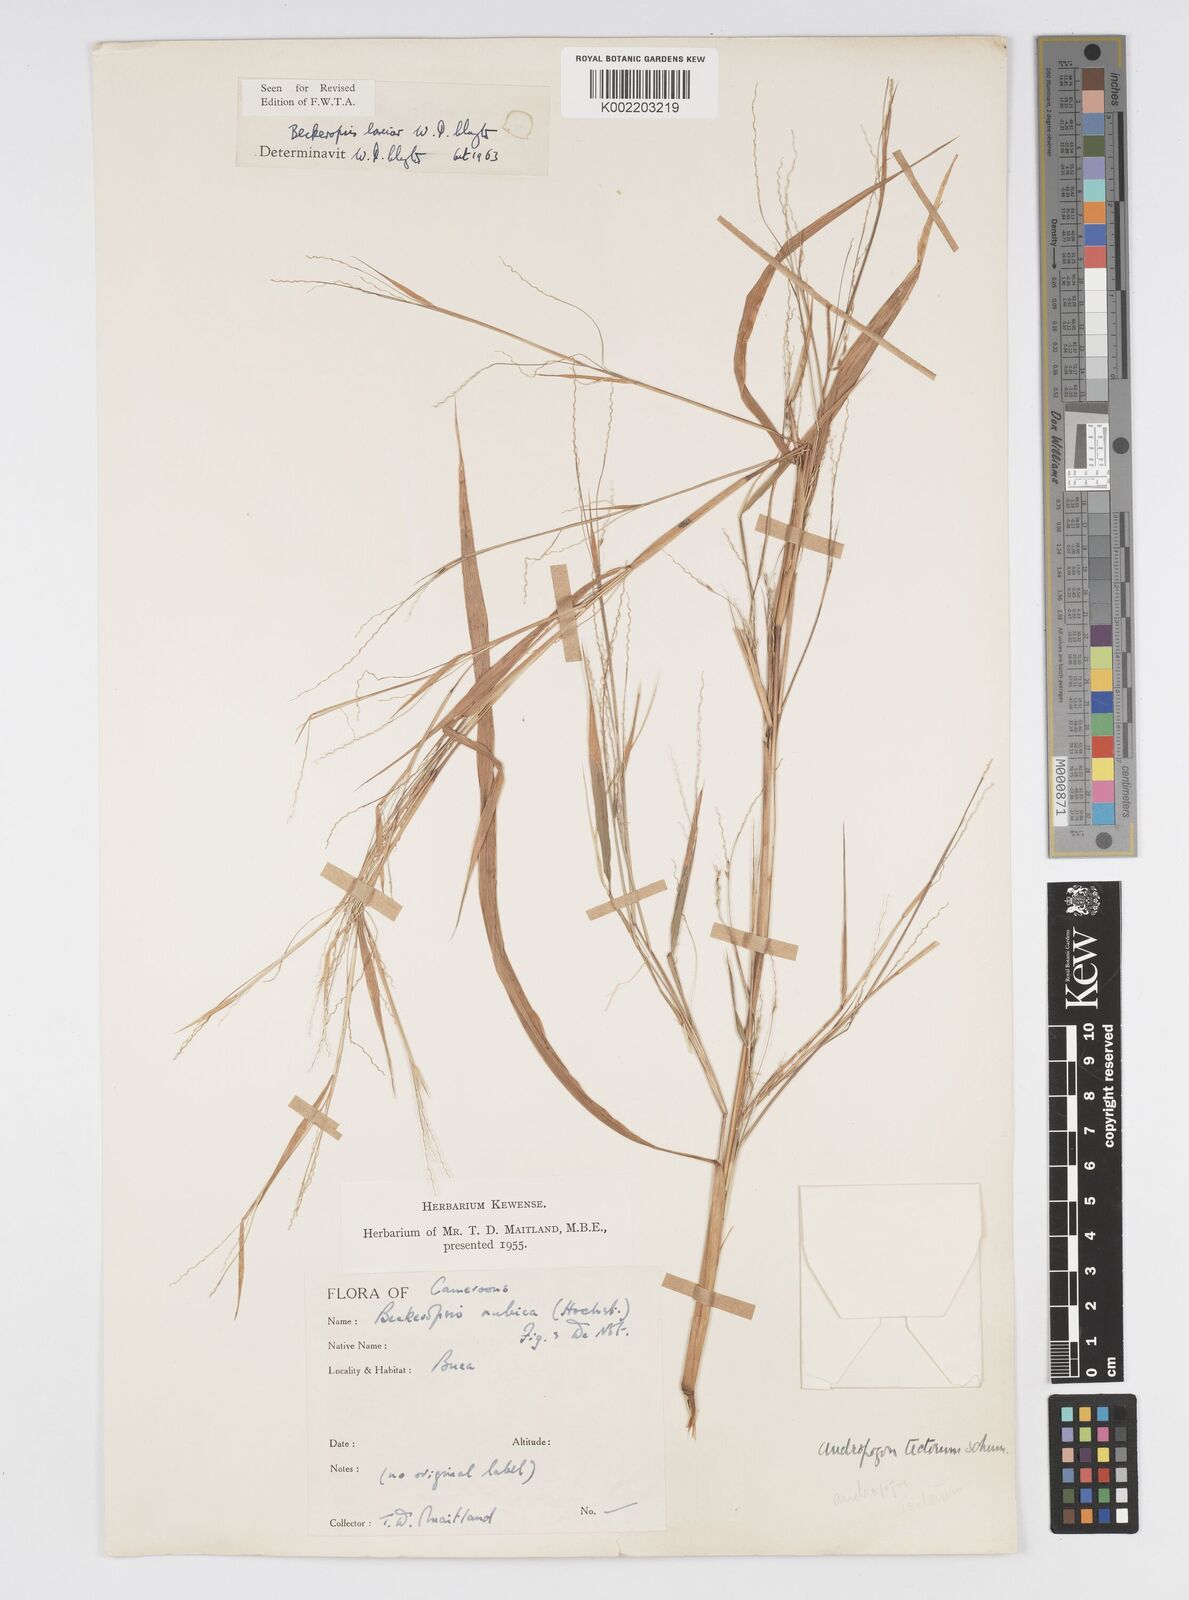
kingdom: Plantae
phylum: Tracheophyta
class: Liliopsida
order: Poales
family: Poaceae
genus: Cenchrus
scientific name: Cenchrus Pennisetum spec
